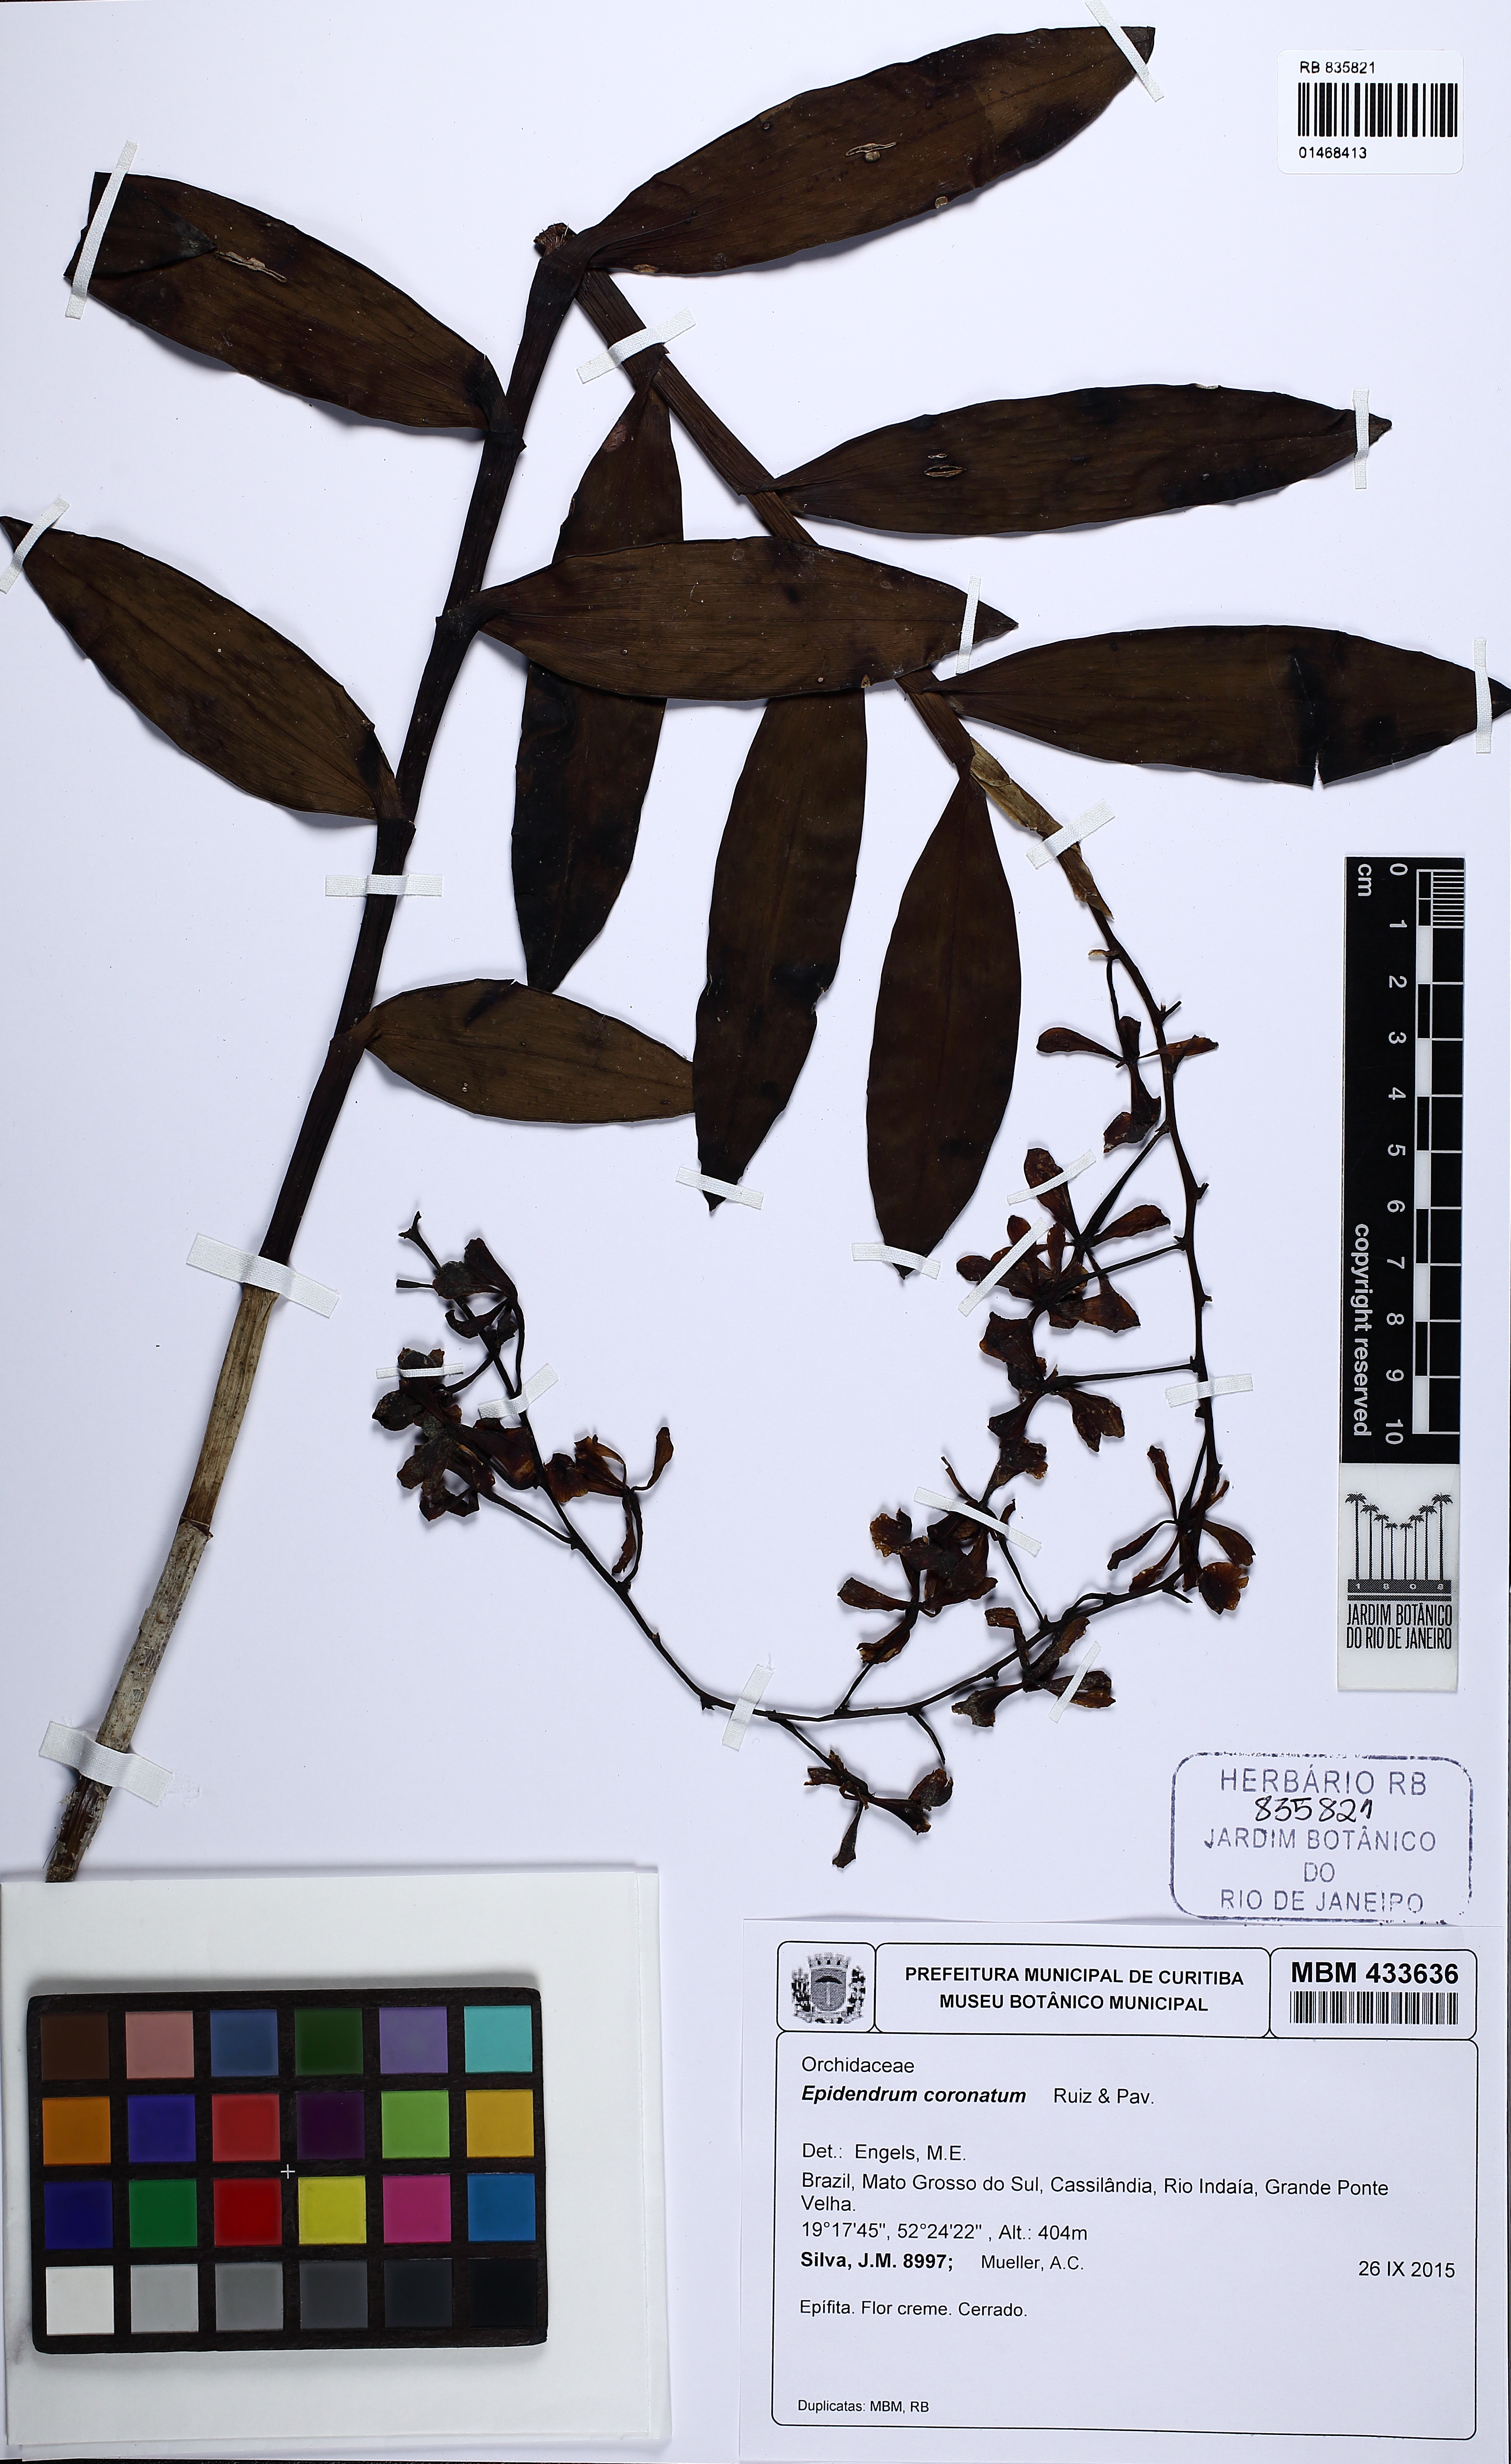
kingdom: Plantae
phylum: Tracheophyta
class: Liliopsida
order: Asparagales
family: Orchidaceae
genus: Epidendrum
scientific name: Epidendrum coronatum
